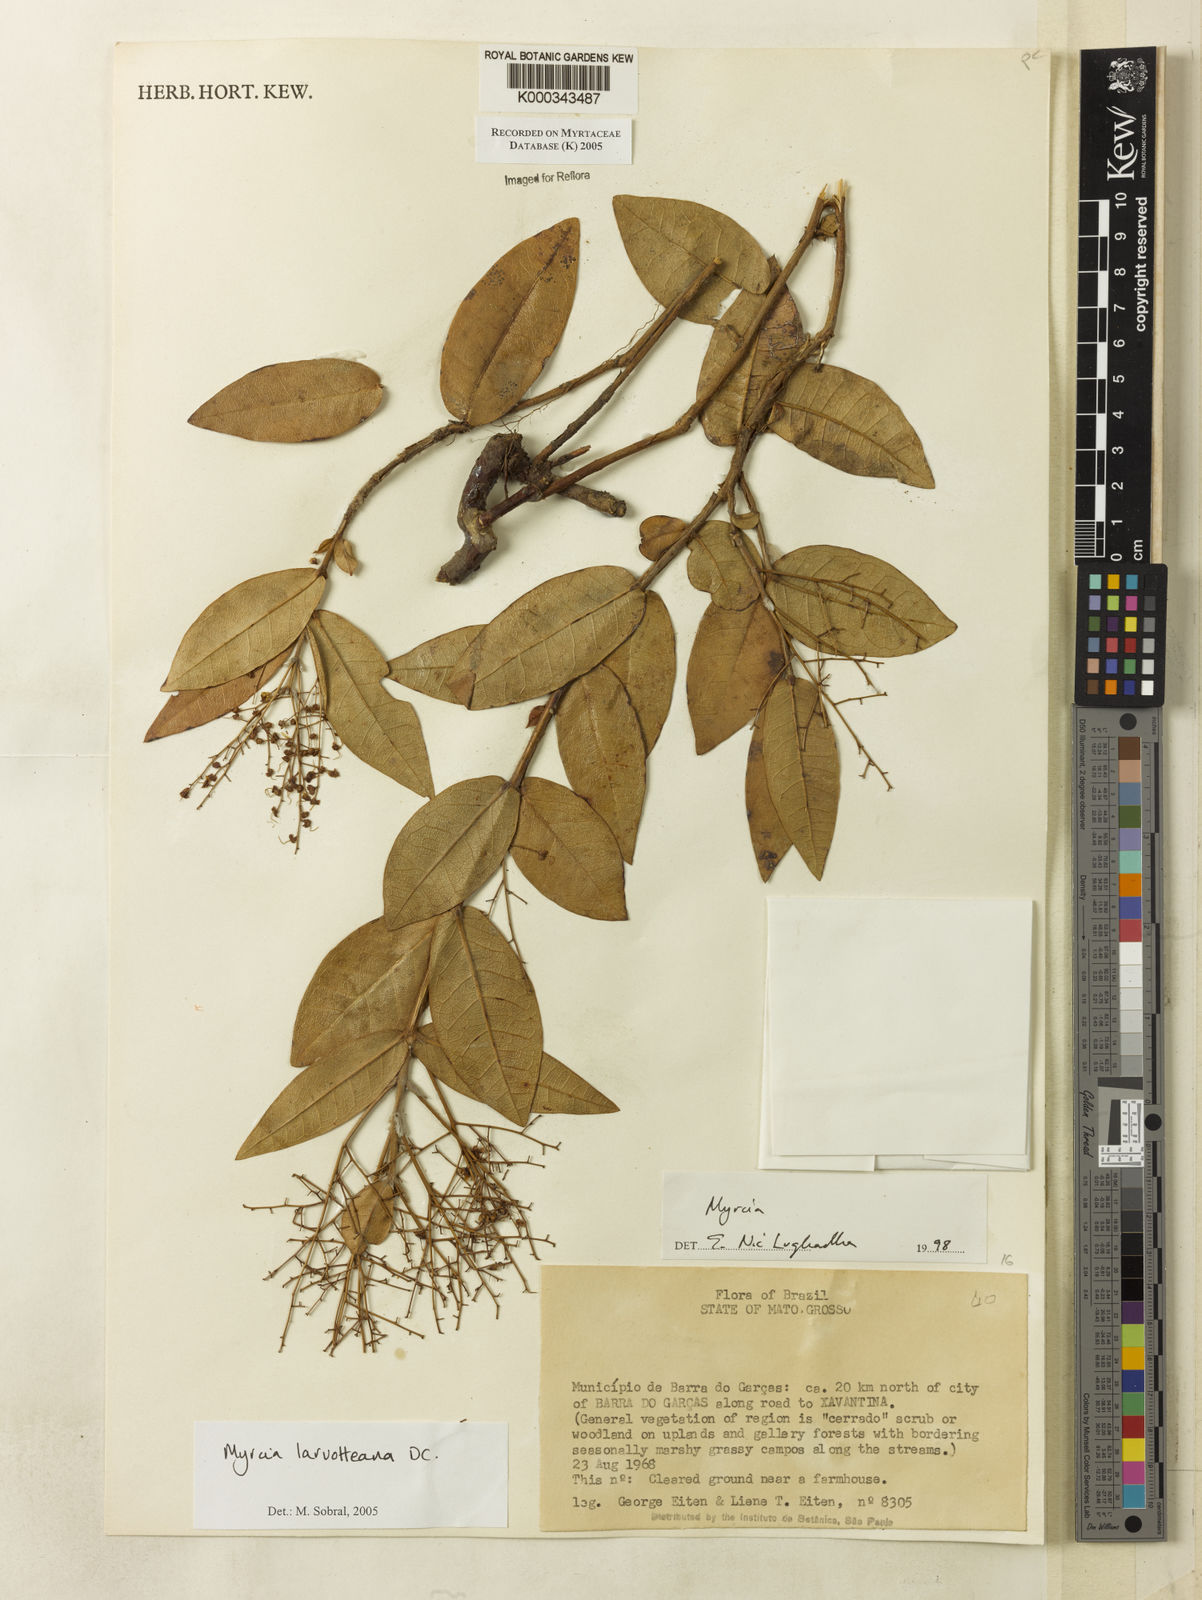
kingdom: Plantae
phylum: Tracheophyta
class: Magnoliopsida
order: Myrtales
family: Myrtaceae
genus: Myrcia
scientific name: Myrcia laruotteana
